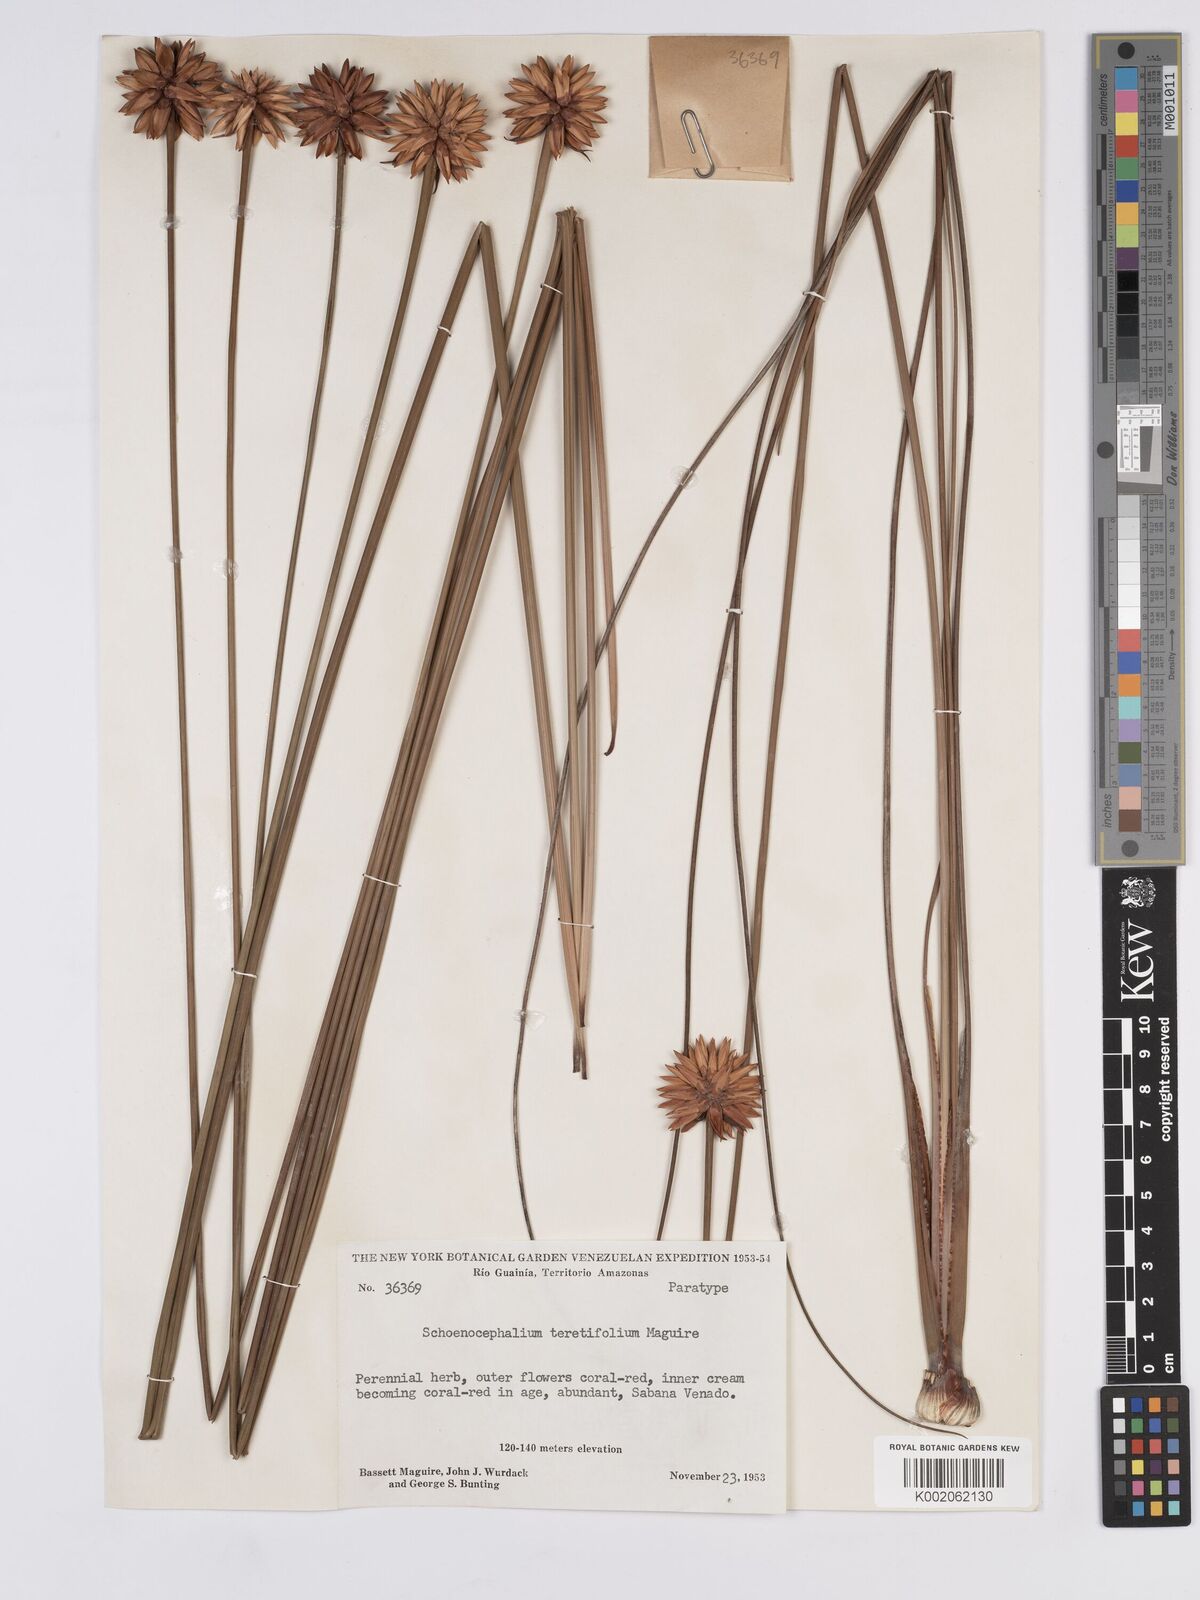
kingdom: Plantae
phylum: Tracheophyta
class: Liliopsida
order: Poales
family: Rapateaceae
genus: Schoenocephalium
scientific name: Schoenocephalium teretifolium
